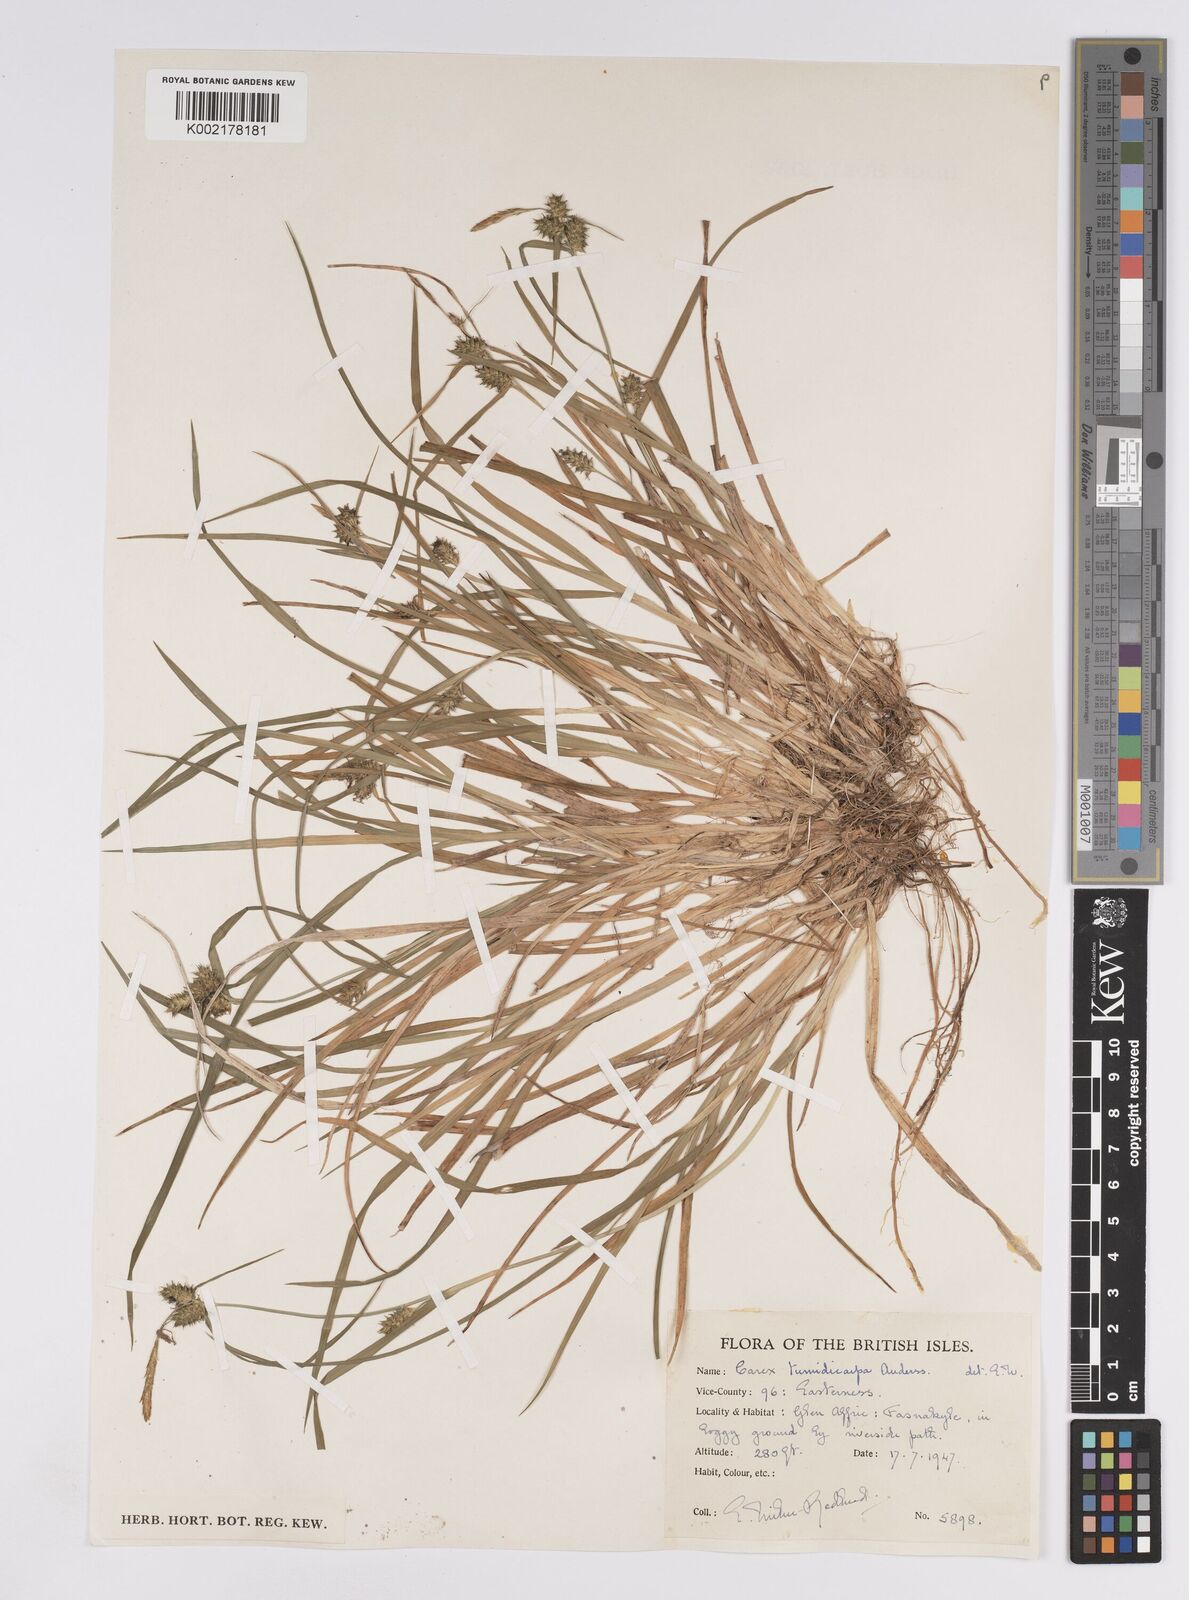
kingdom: Plantae
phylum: Tracheophyta
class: Liliopsida
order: Poales
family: Cyperaceae
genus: Carex
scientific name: Carex demissa
